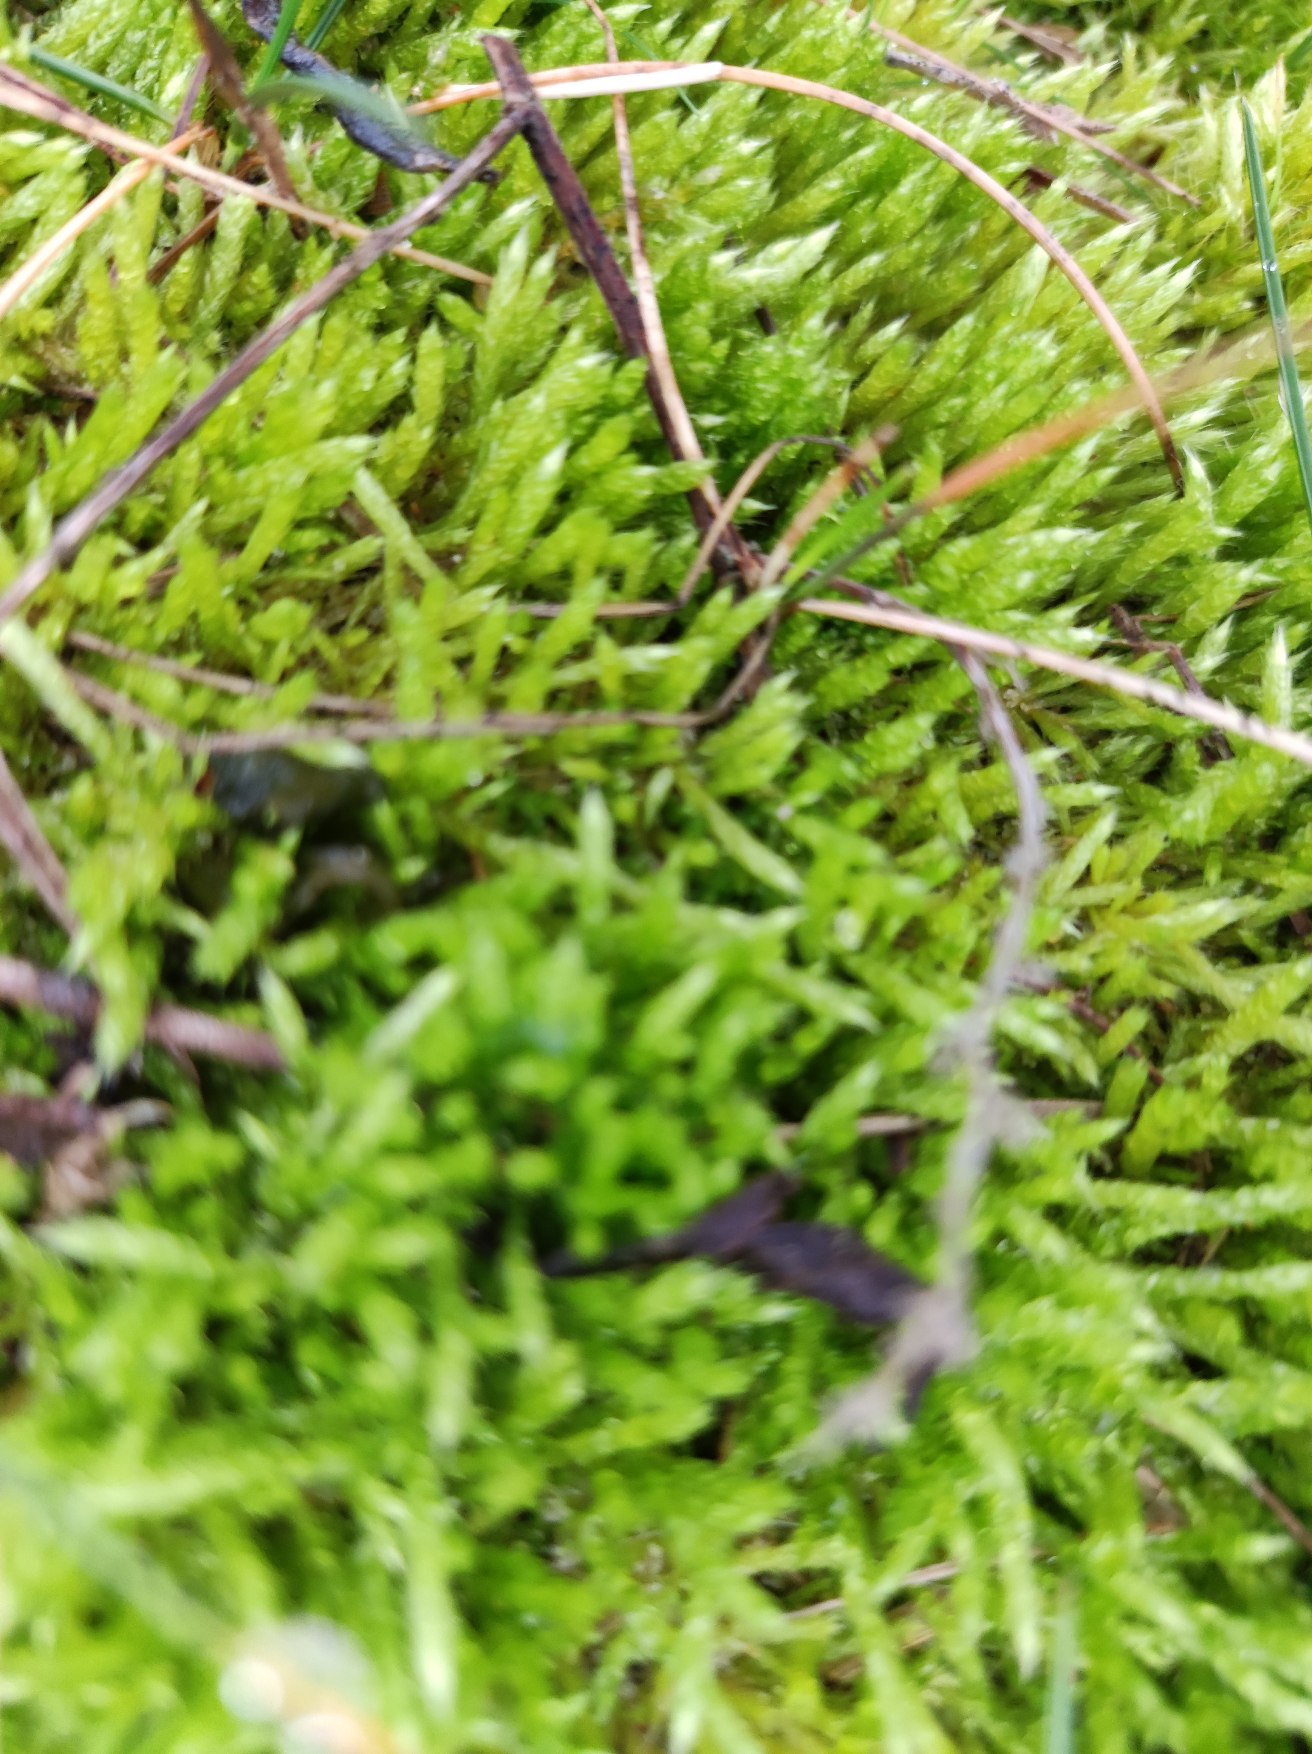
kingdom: Plantae
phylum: Bryophyta
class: Bryopsida
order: Hypnales
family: Brachytheciaceae
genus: Brachythecium
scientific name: Brachythecium albicans
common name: Hvidlig kortkapsel
